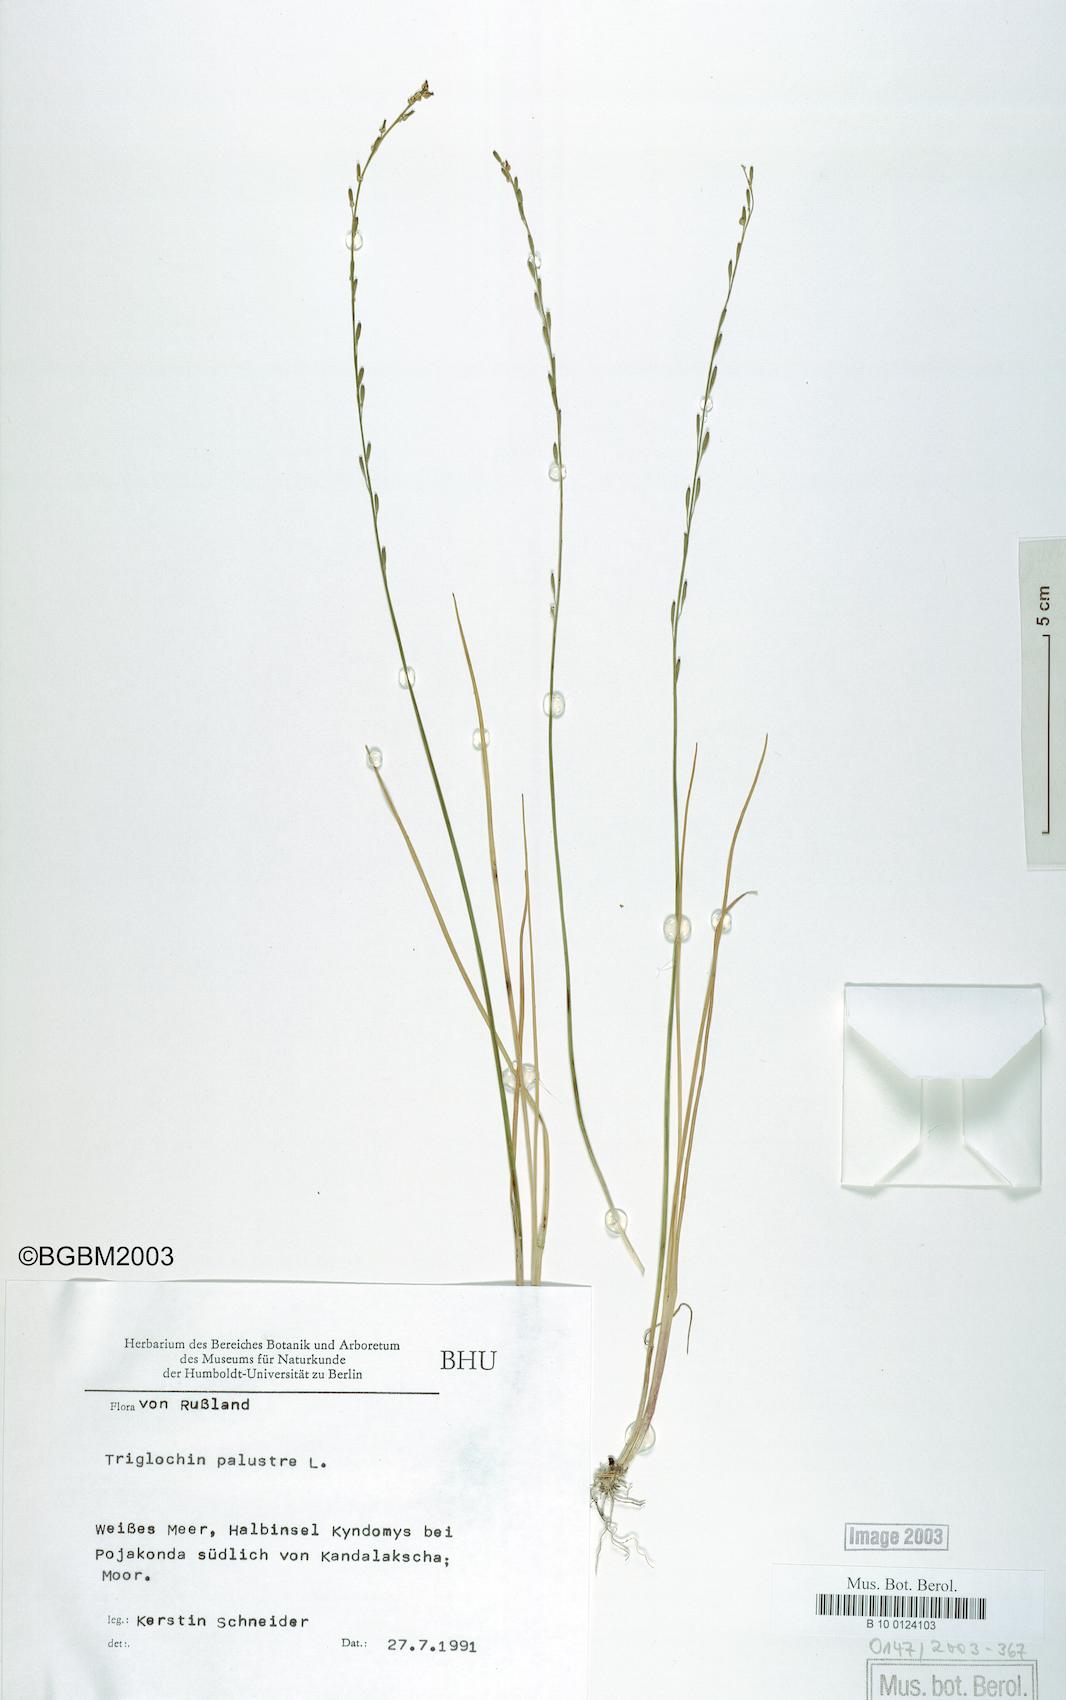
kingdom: Plantae
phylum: Tracheophyta
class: Liliopsida
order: Alismatales
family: Juncaginaceae
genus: Triglochin
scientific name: Triglochin palustris
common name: Marsh arrowgrass
